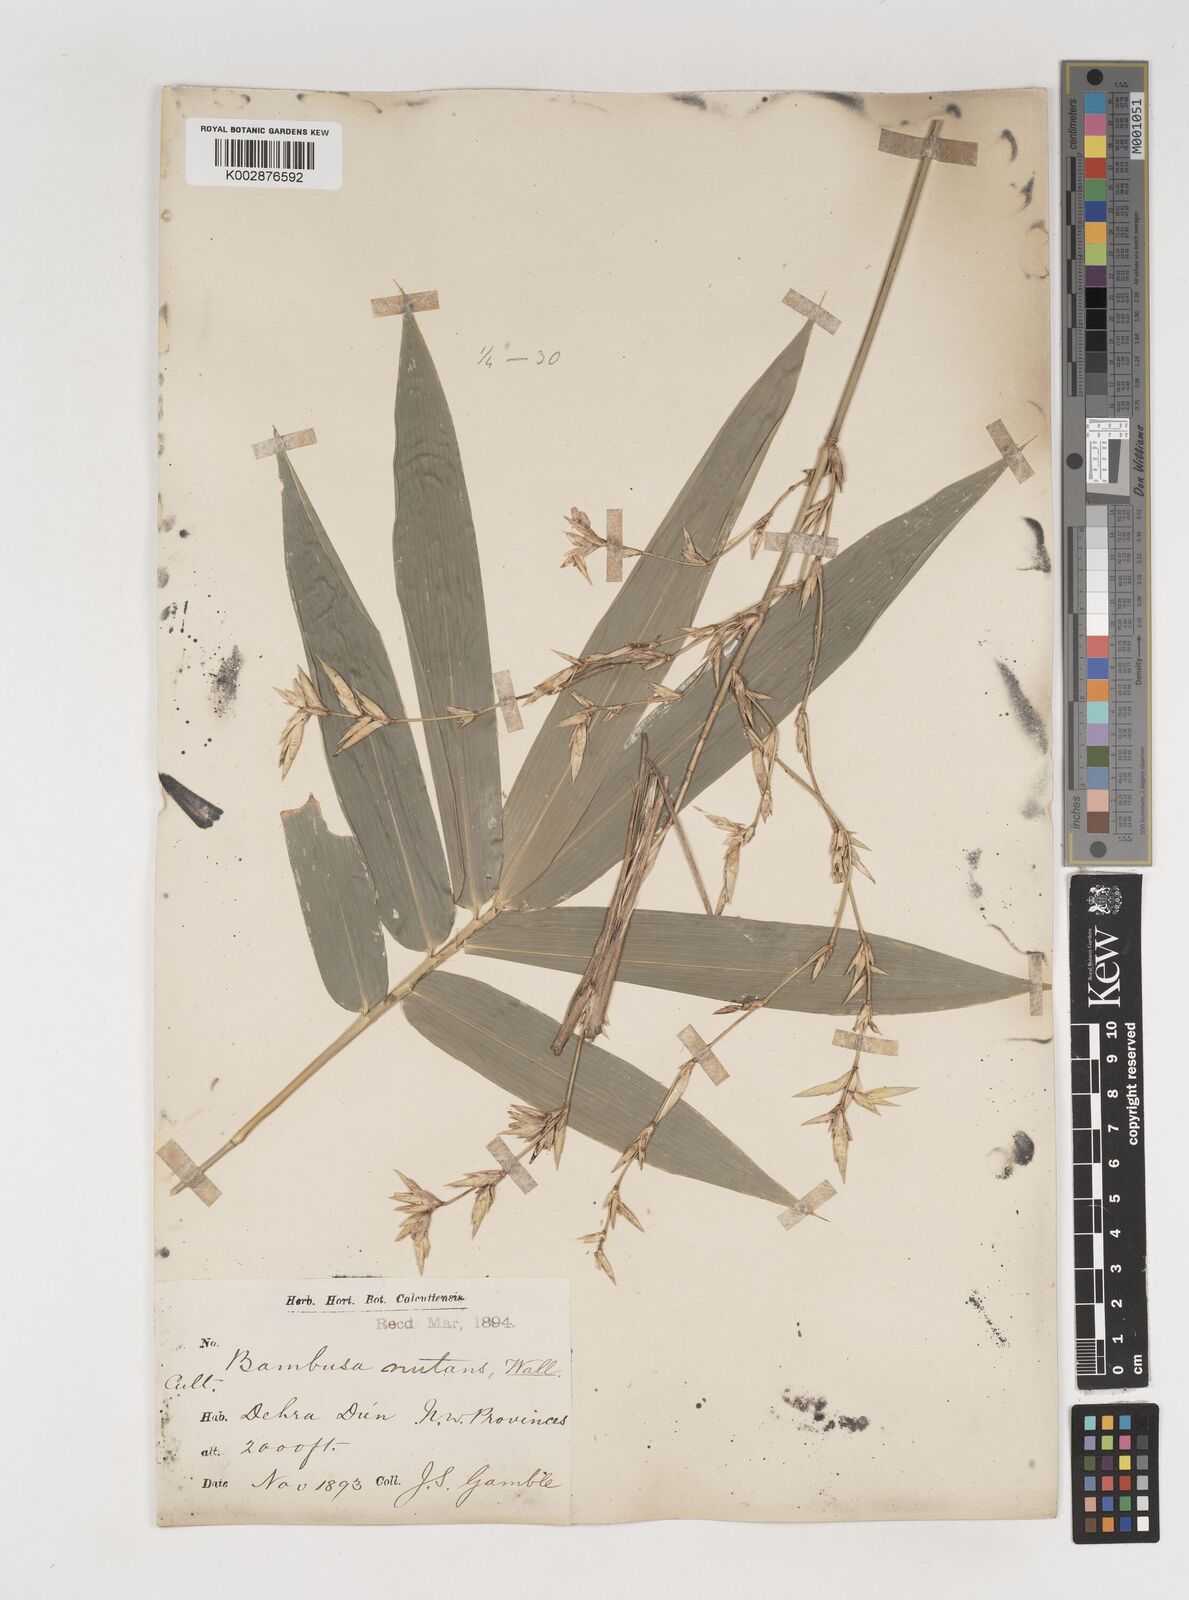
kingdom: Plantae
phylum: Tracheophyta
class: Liliopsida
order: Poales
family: Poaceae
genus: Bambusa
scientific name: Bambusa nutans
